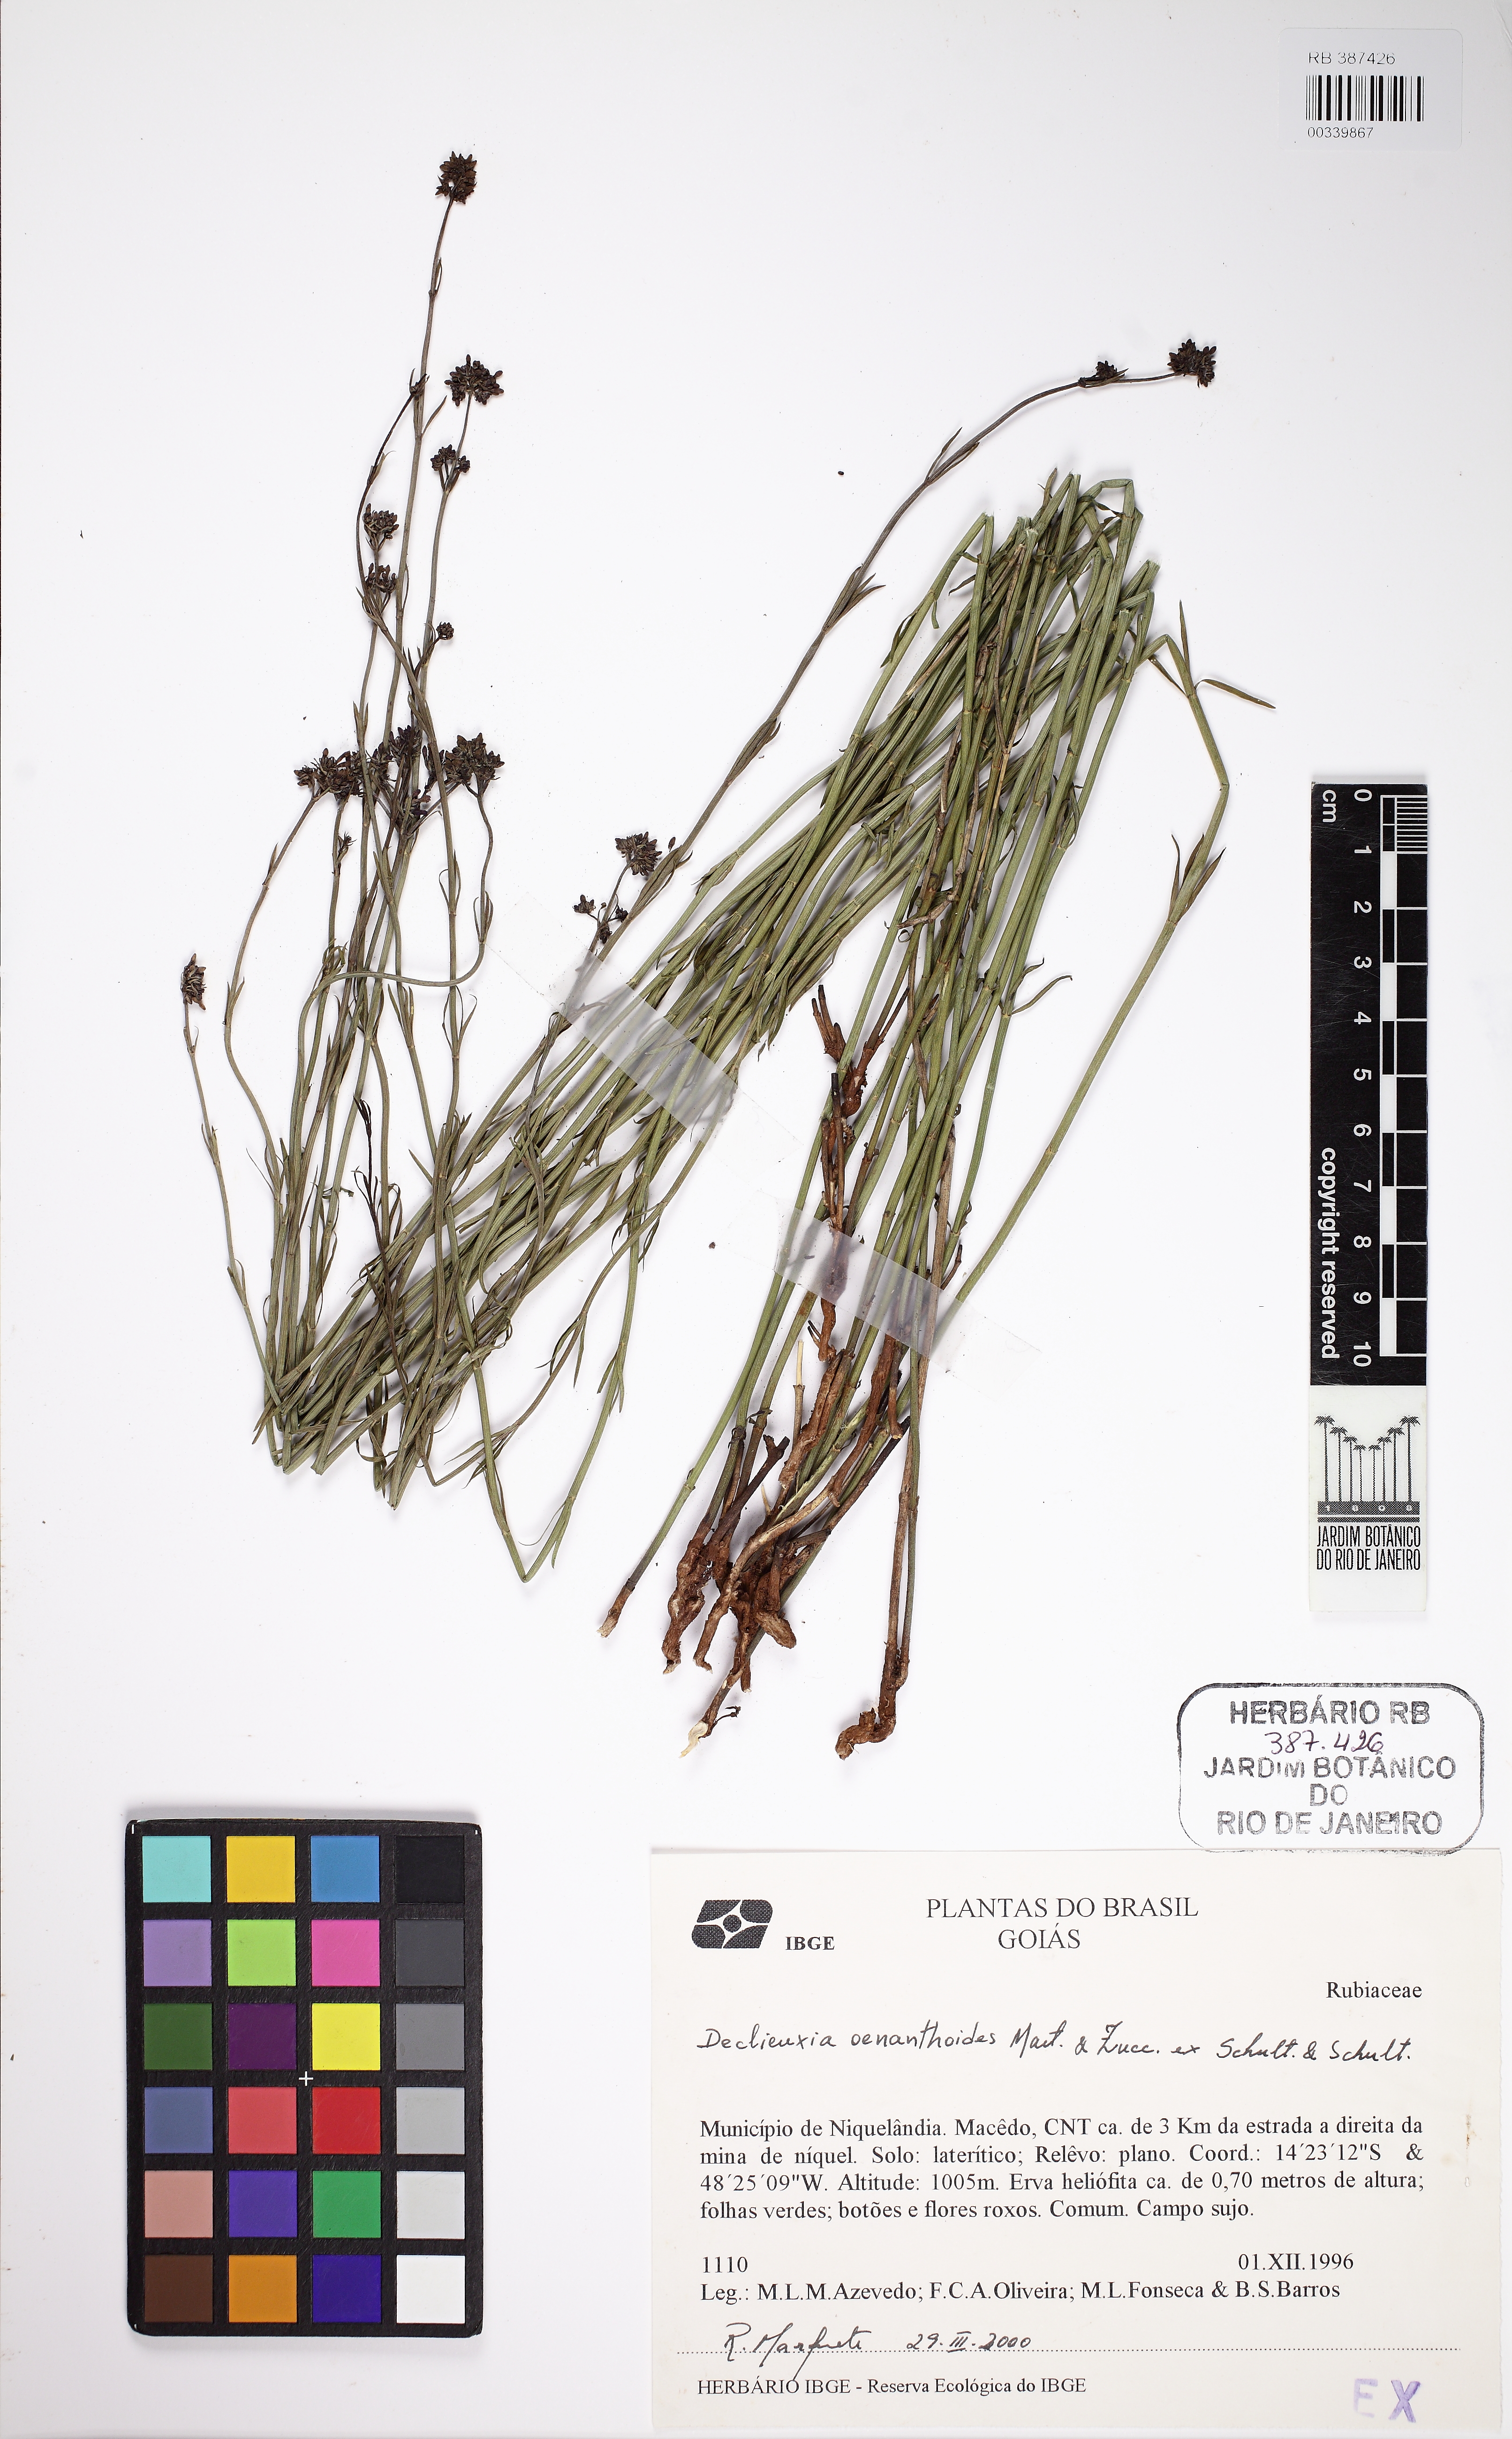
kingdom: Plantae
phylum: Tracheophyta
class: Magnoliopsida
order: Gentianales
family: Rubiaceae
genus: Declieuxia
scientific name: Declieuxia oenanthoides
